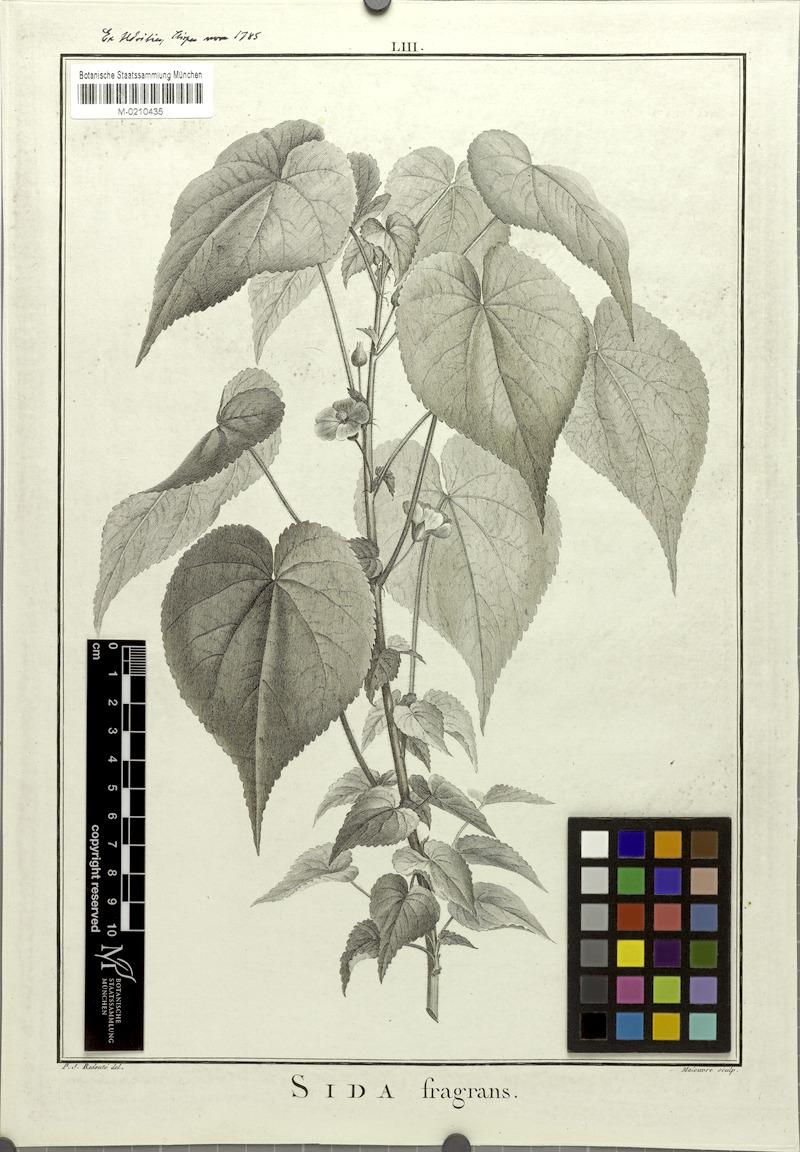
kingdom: Plantae
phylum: Tracheophyta
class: Magnoliopsida
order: Malvales
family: Malvaceae
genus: Abutilon
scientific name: Abutilon bivalve
